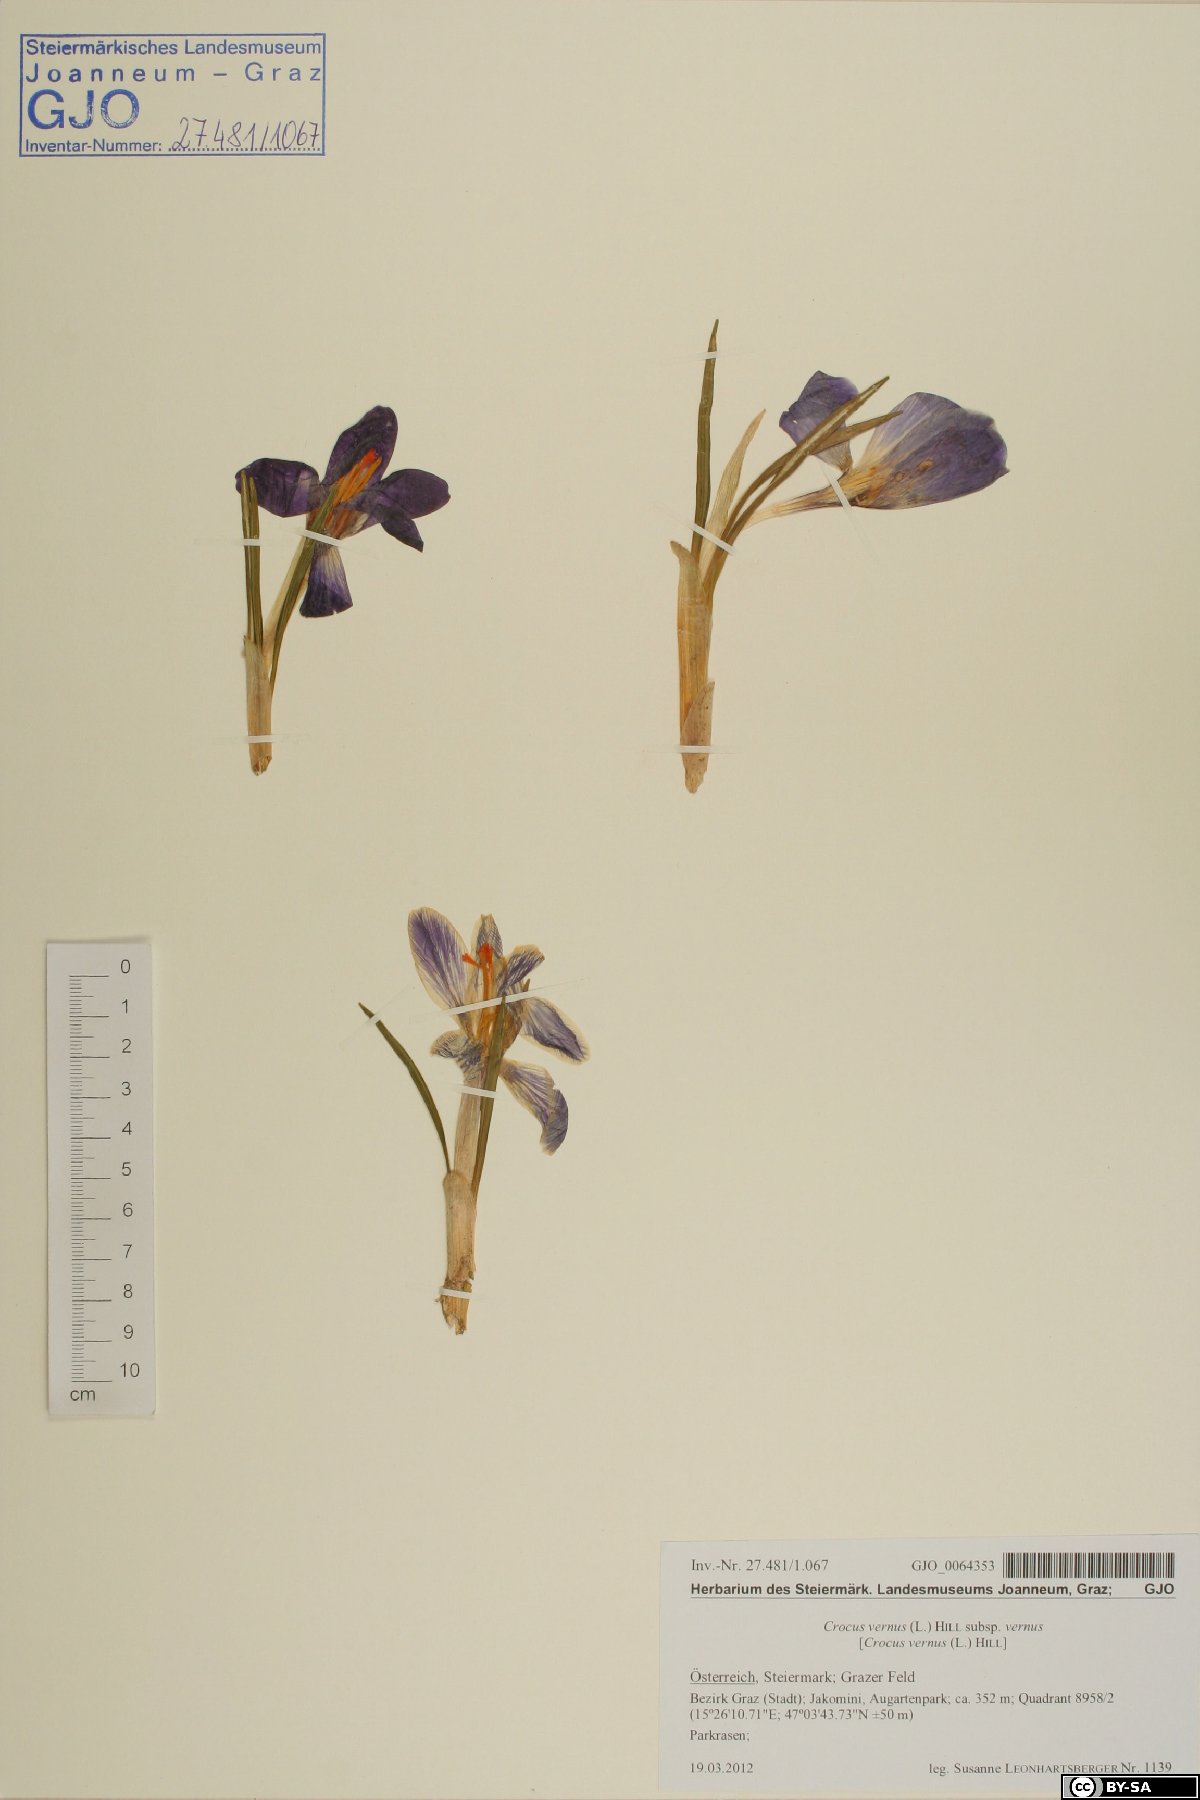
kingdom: Plantae
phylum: Tracheophyta
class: Liliopsida
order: Asparagales
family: Iridaceae
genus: Crocus
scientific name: Crocus vernus
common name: Spring crocus
